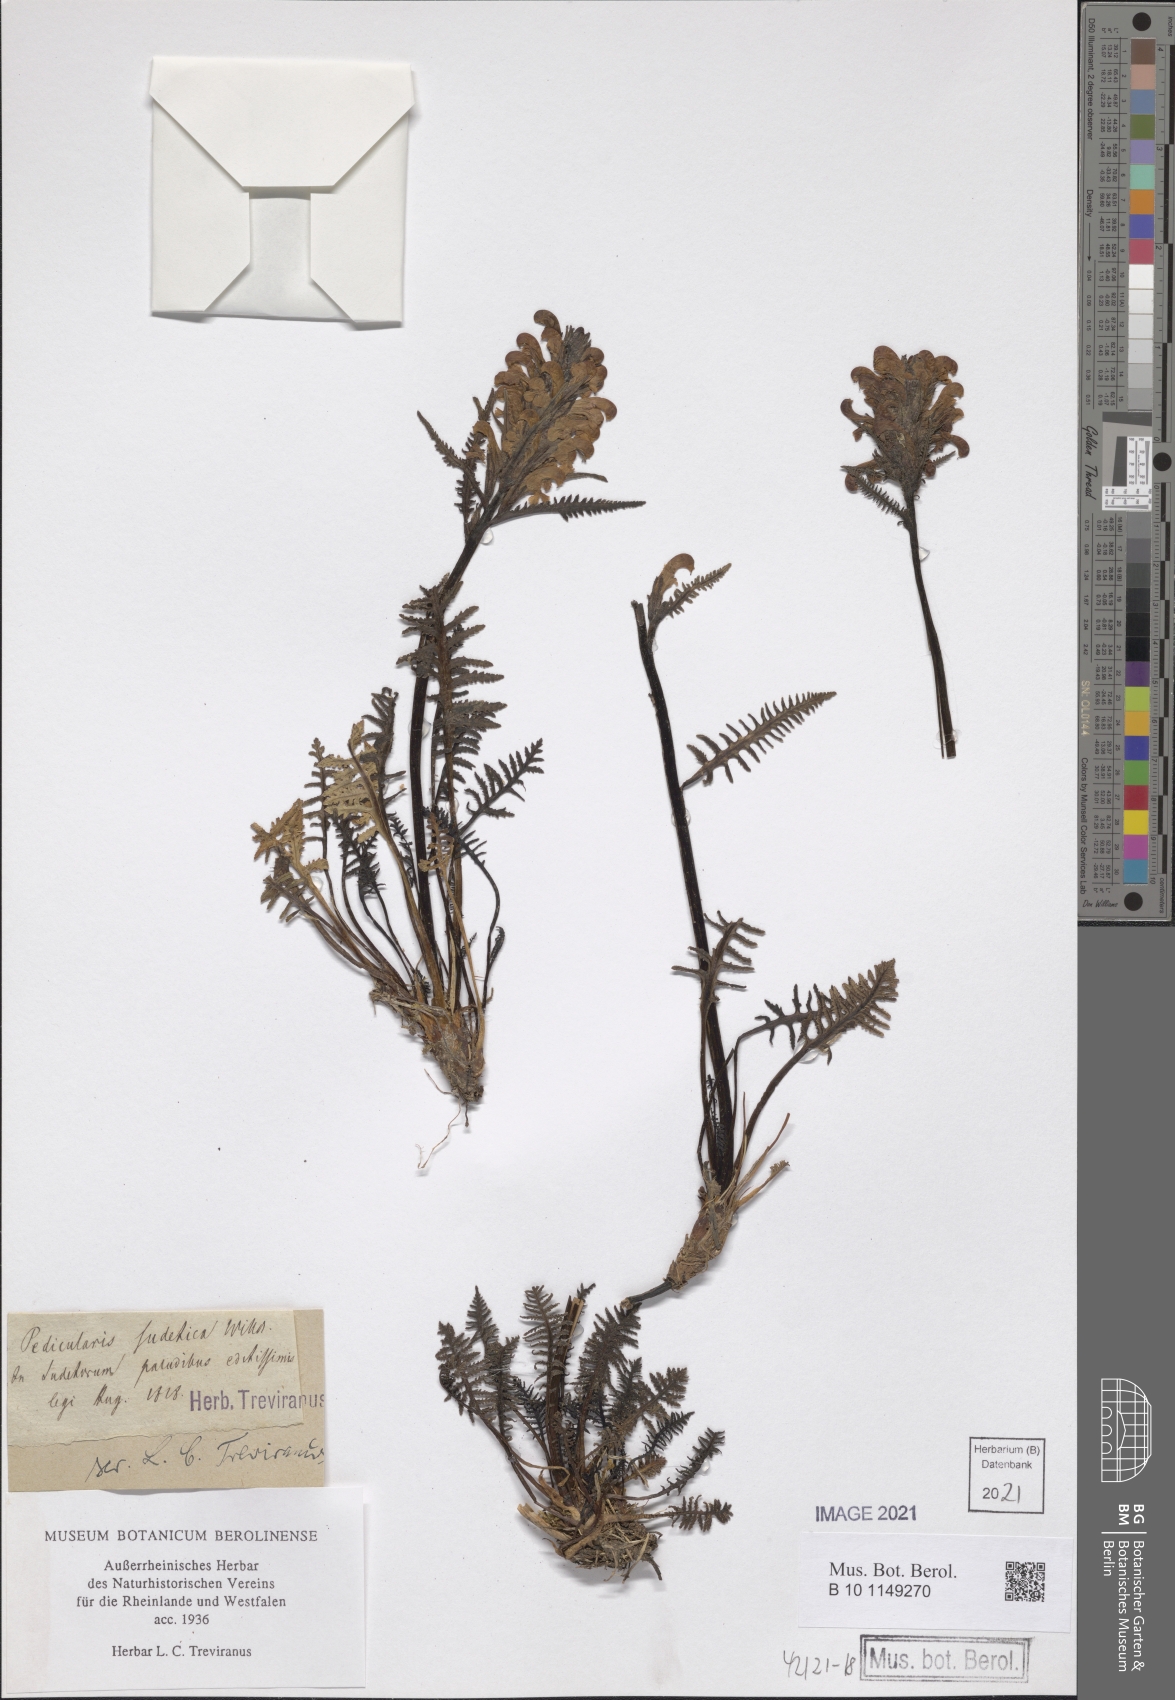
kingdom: Plantae
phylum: Tracheophyta
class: Magnoliopsida
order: Lamiales
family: Orobanchaceae
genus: Pedicularis
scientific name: Pedicularis sudetica
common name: Sudeten lousewort
